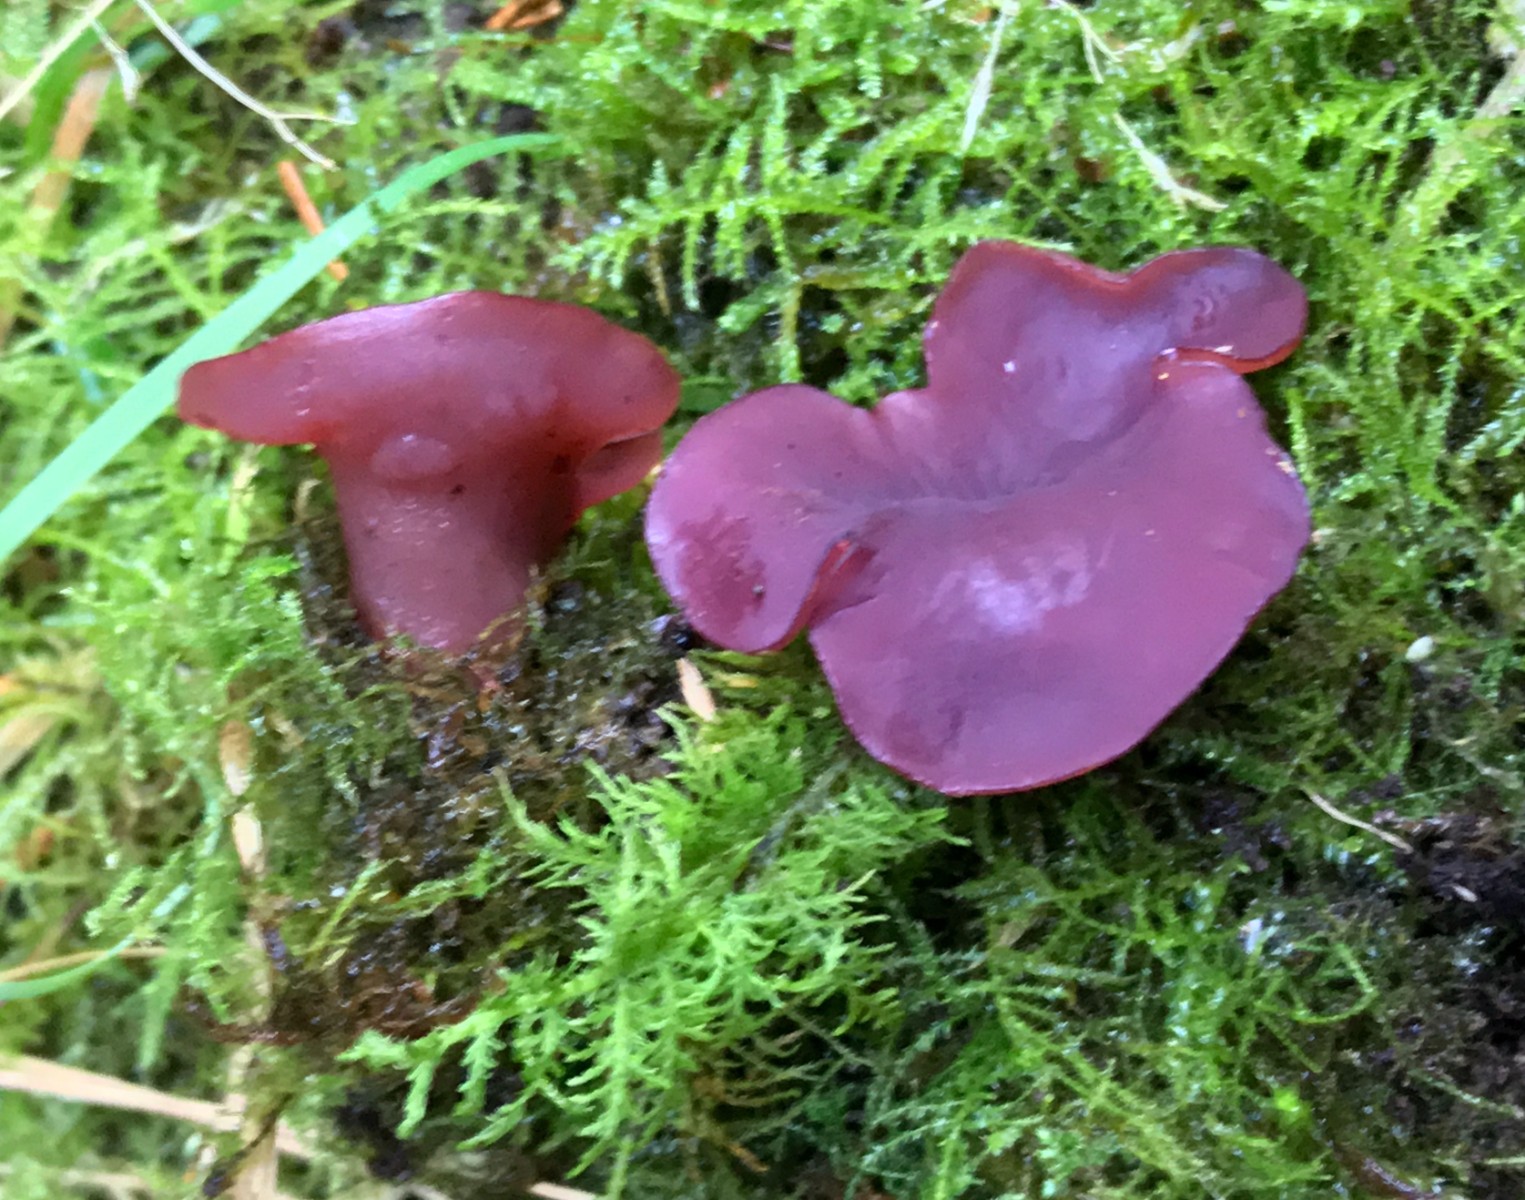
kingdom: Fungi
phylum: Ascomycota
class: Leotiomycetes
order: Helotiales
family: Gelatinodiscaceae
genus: Ascocoryne
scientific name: Ascocoryne cylichnium
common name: stor sejskive
